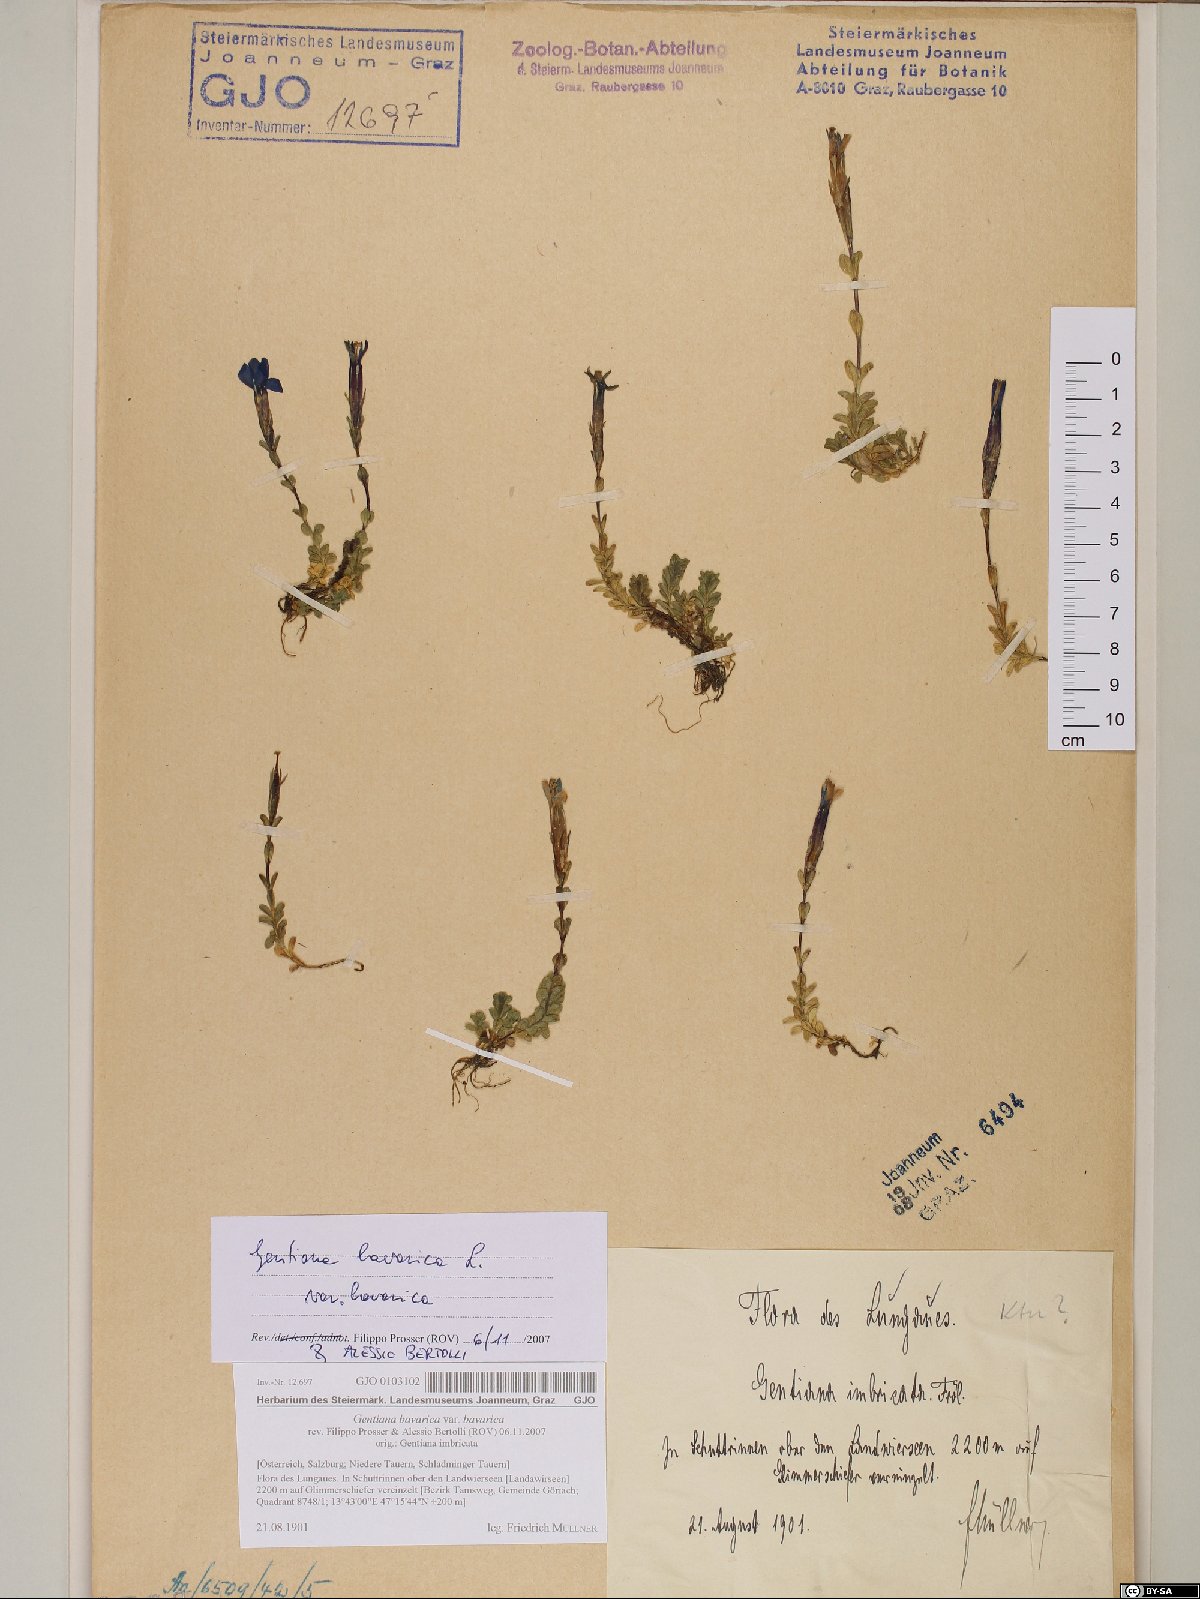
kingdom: Plantae
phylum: Tracheophyta
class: Magnoliopsida
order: Gentianales
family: Gentianaceae
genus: Gentiana
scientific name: Gentiana bavarica
